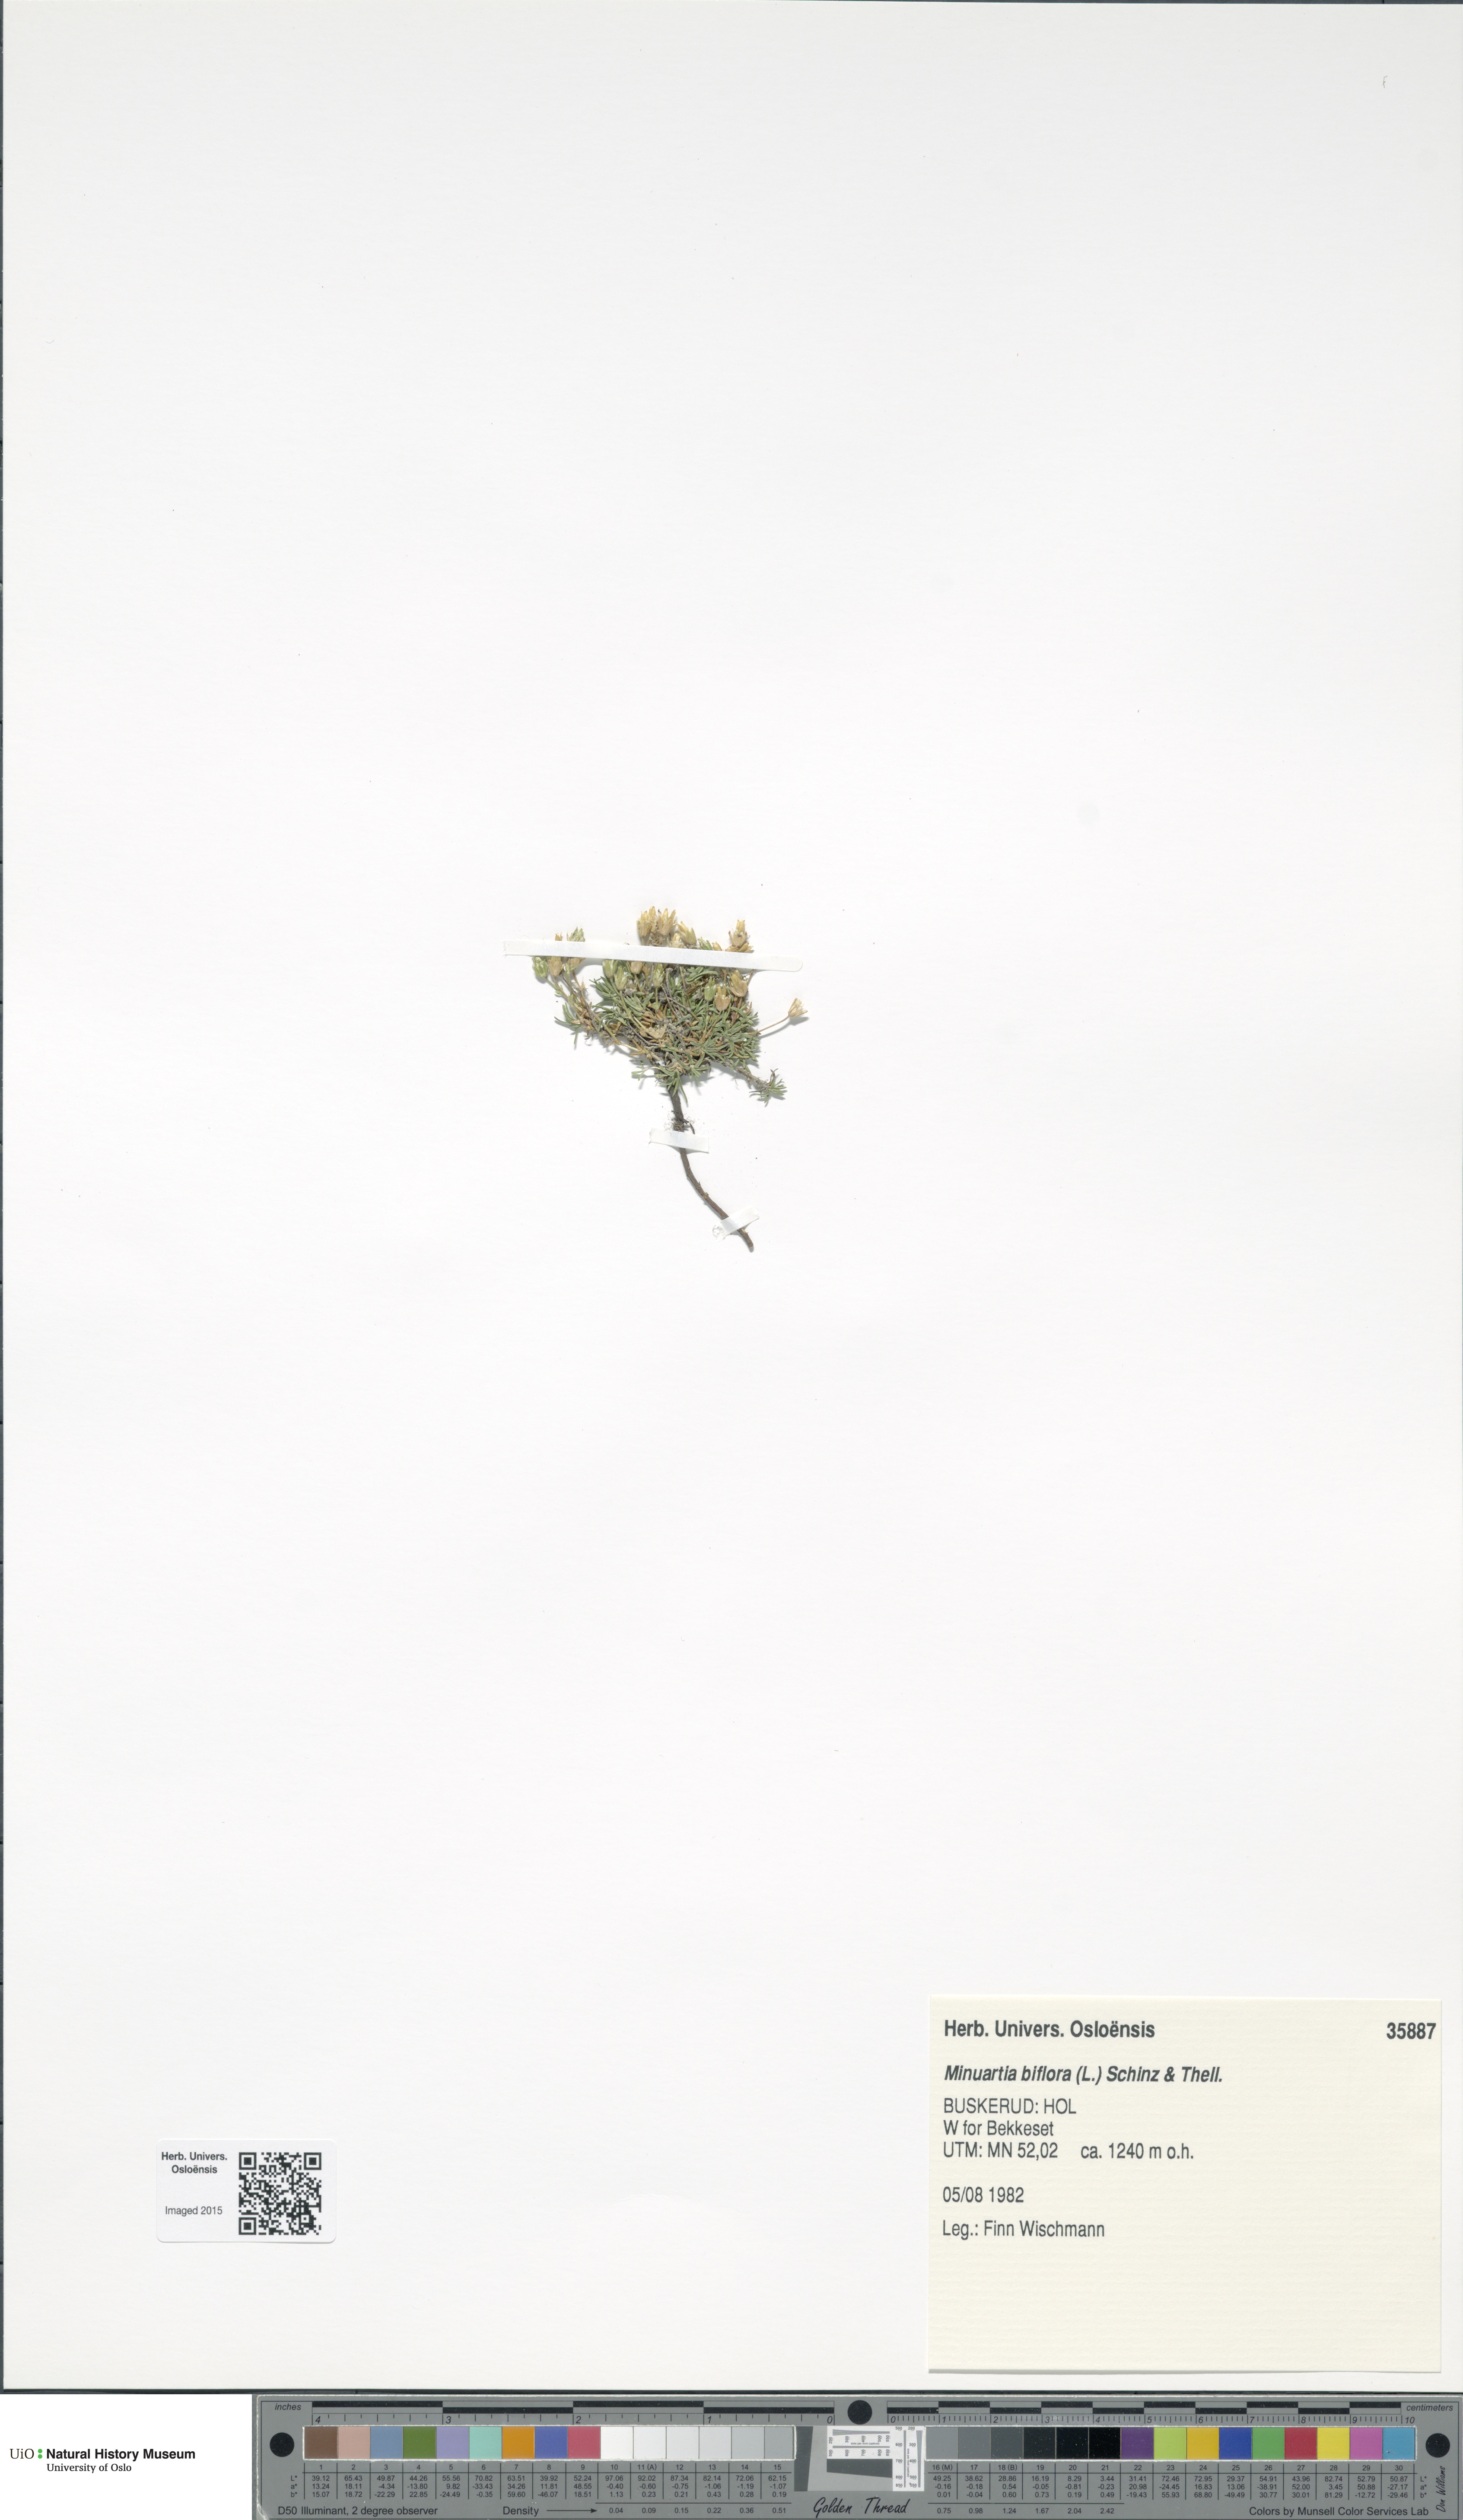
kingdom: Plantae
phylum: Tracheophyta
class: Magnoliopsida
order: Caryophyllales
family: Caryophyllaceae
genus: Cherleria
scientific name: Cherleria biflora
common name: Mountain sandwort
